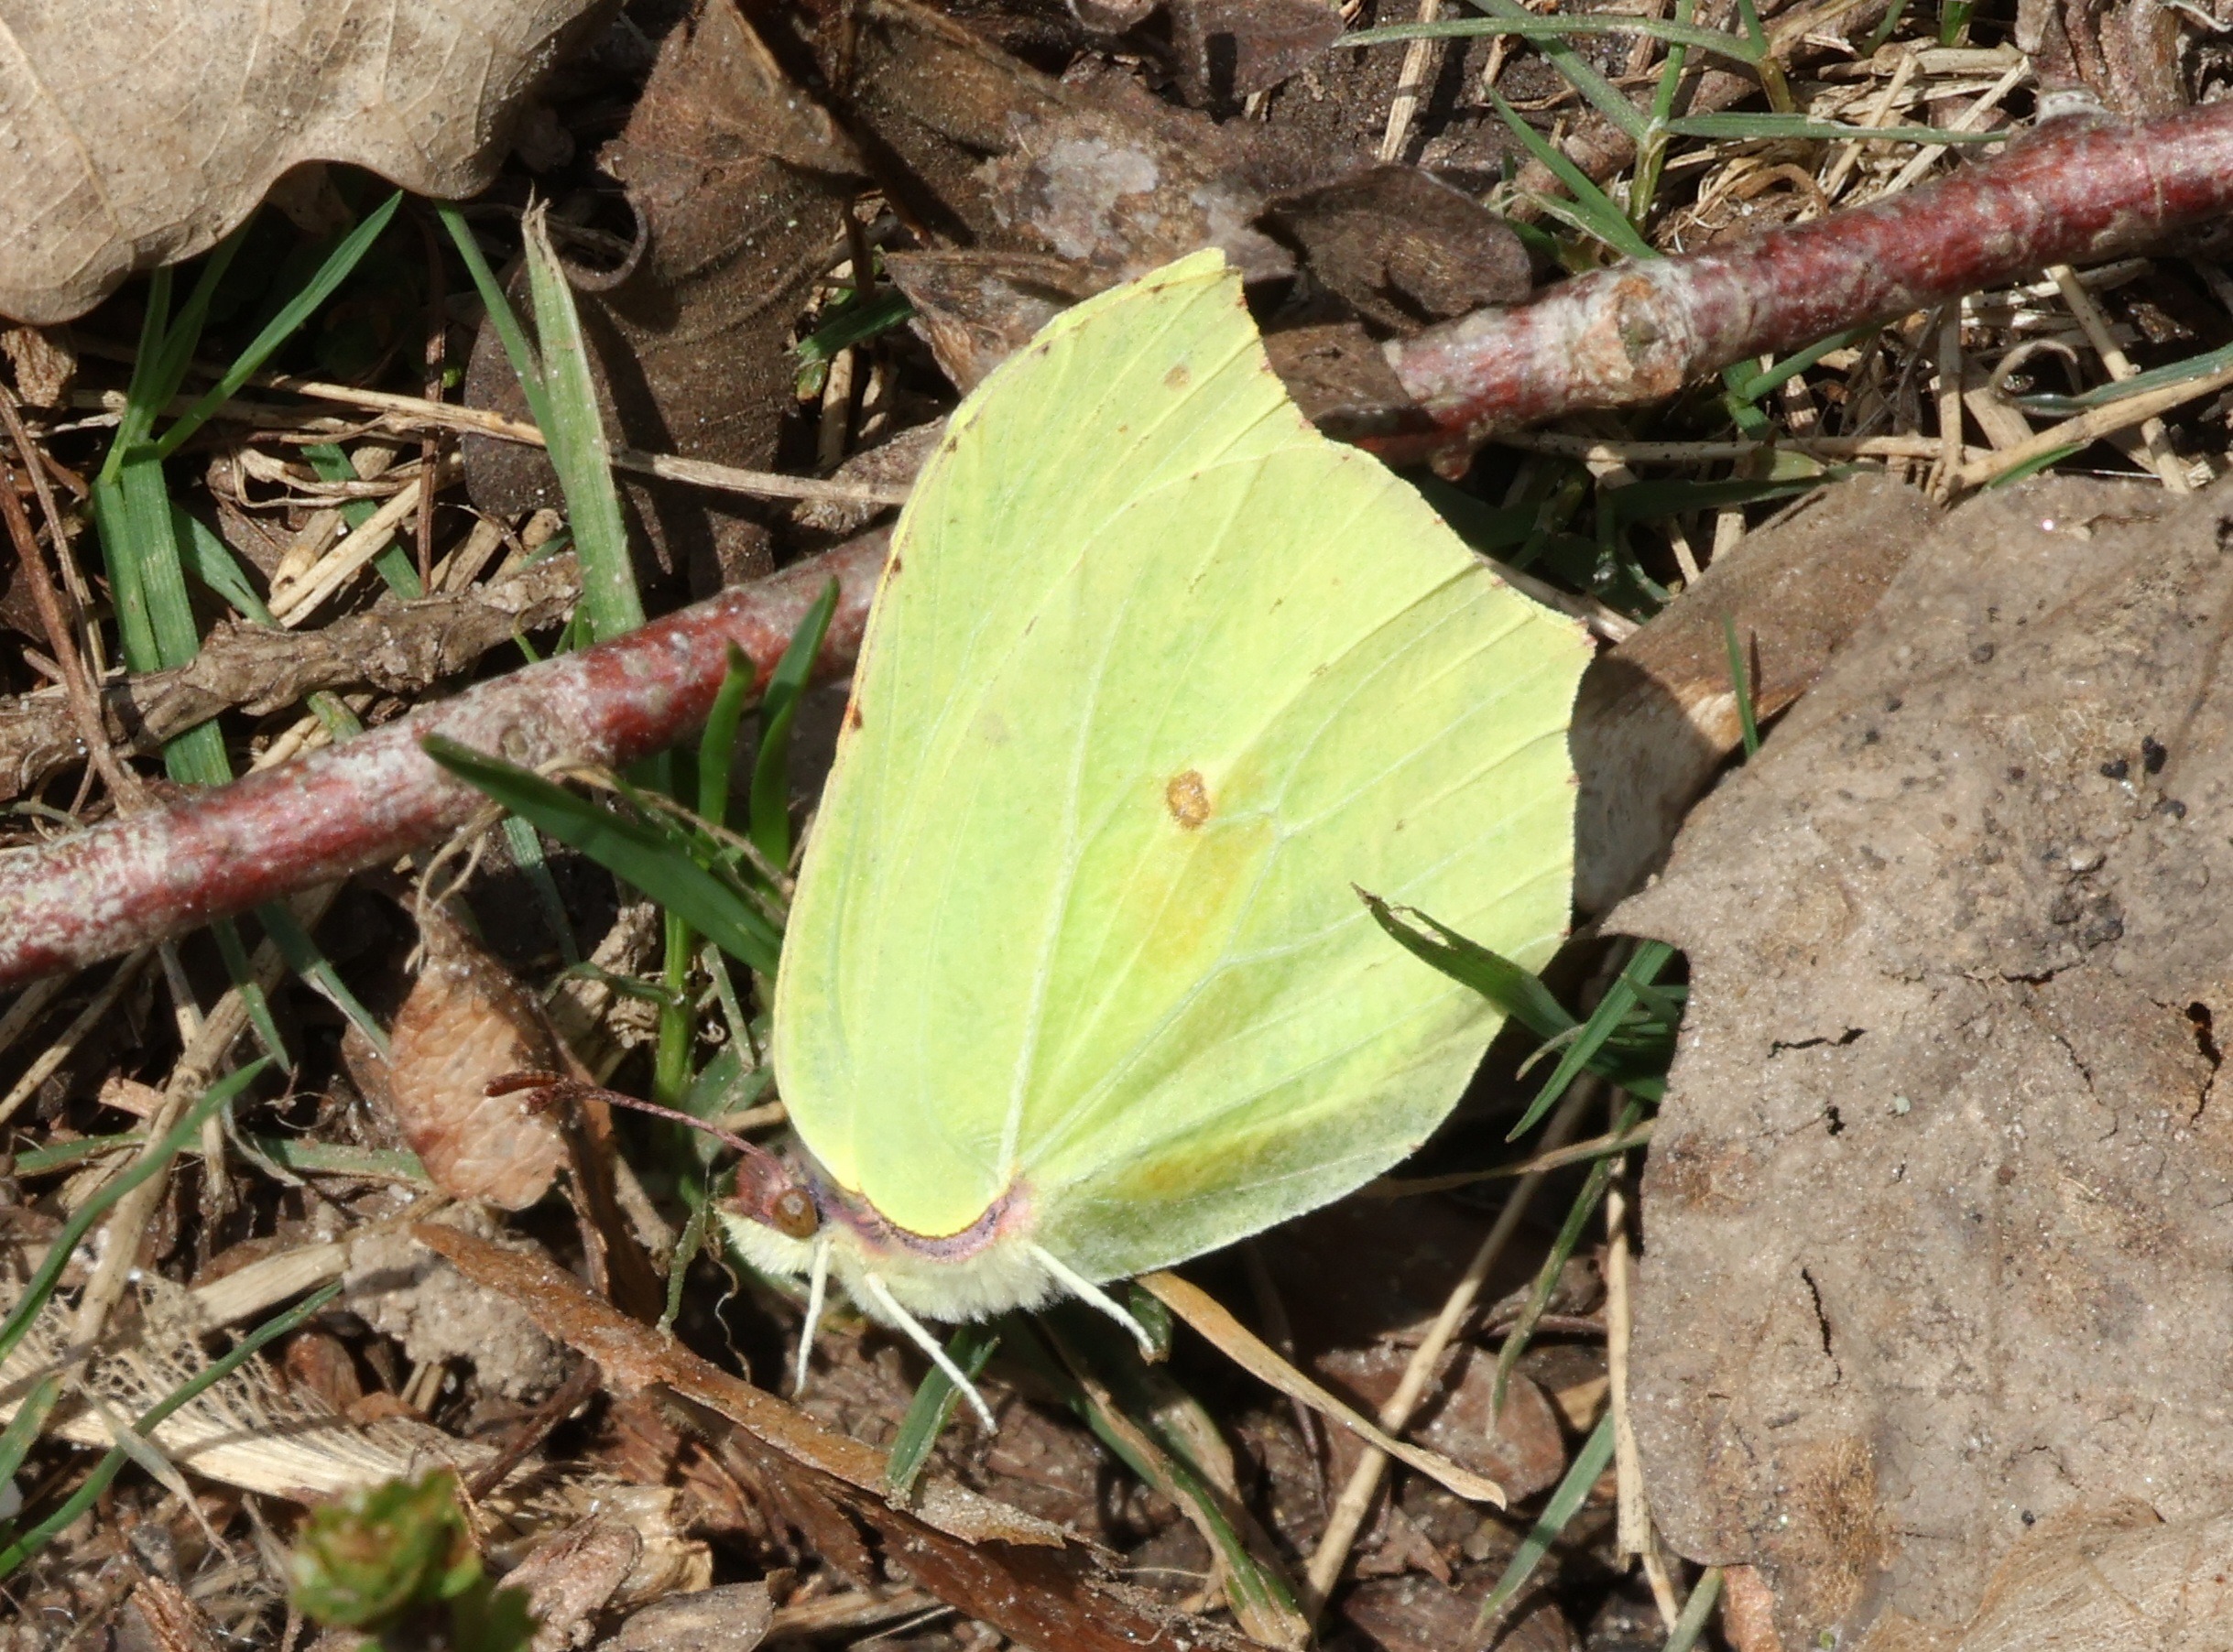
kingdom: Animalia
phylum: Arthropoda
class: Insecta
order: Lepidoptera
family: Pieridae
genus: Gonepteryx
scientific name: Gonepteryx rhamni
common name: Citronsommerfugl
